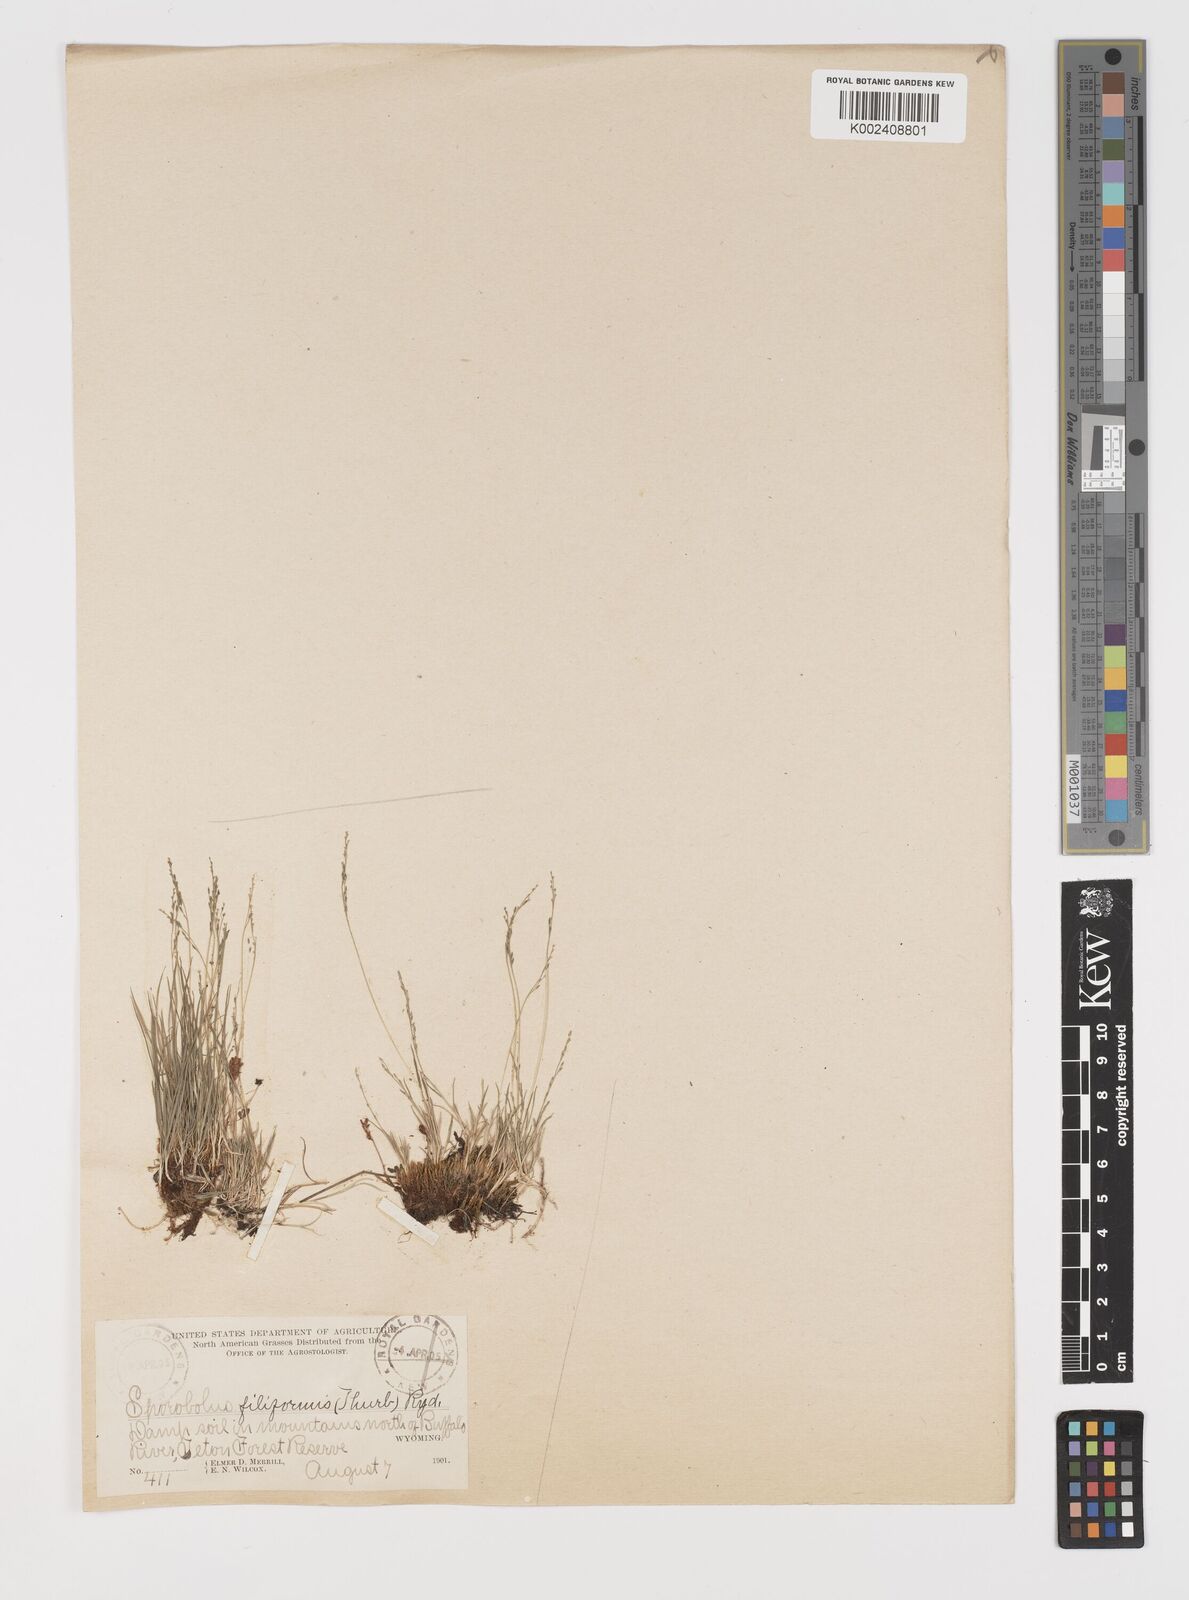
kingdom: Plantae
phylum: Tracheophyta
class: Liliopsida
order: Poales
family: Poaceae
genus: Leptochloa
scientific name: Leptochloa mucronata
